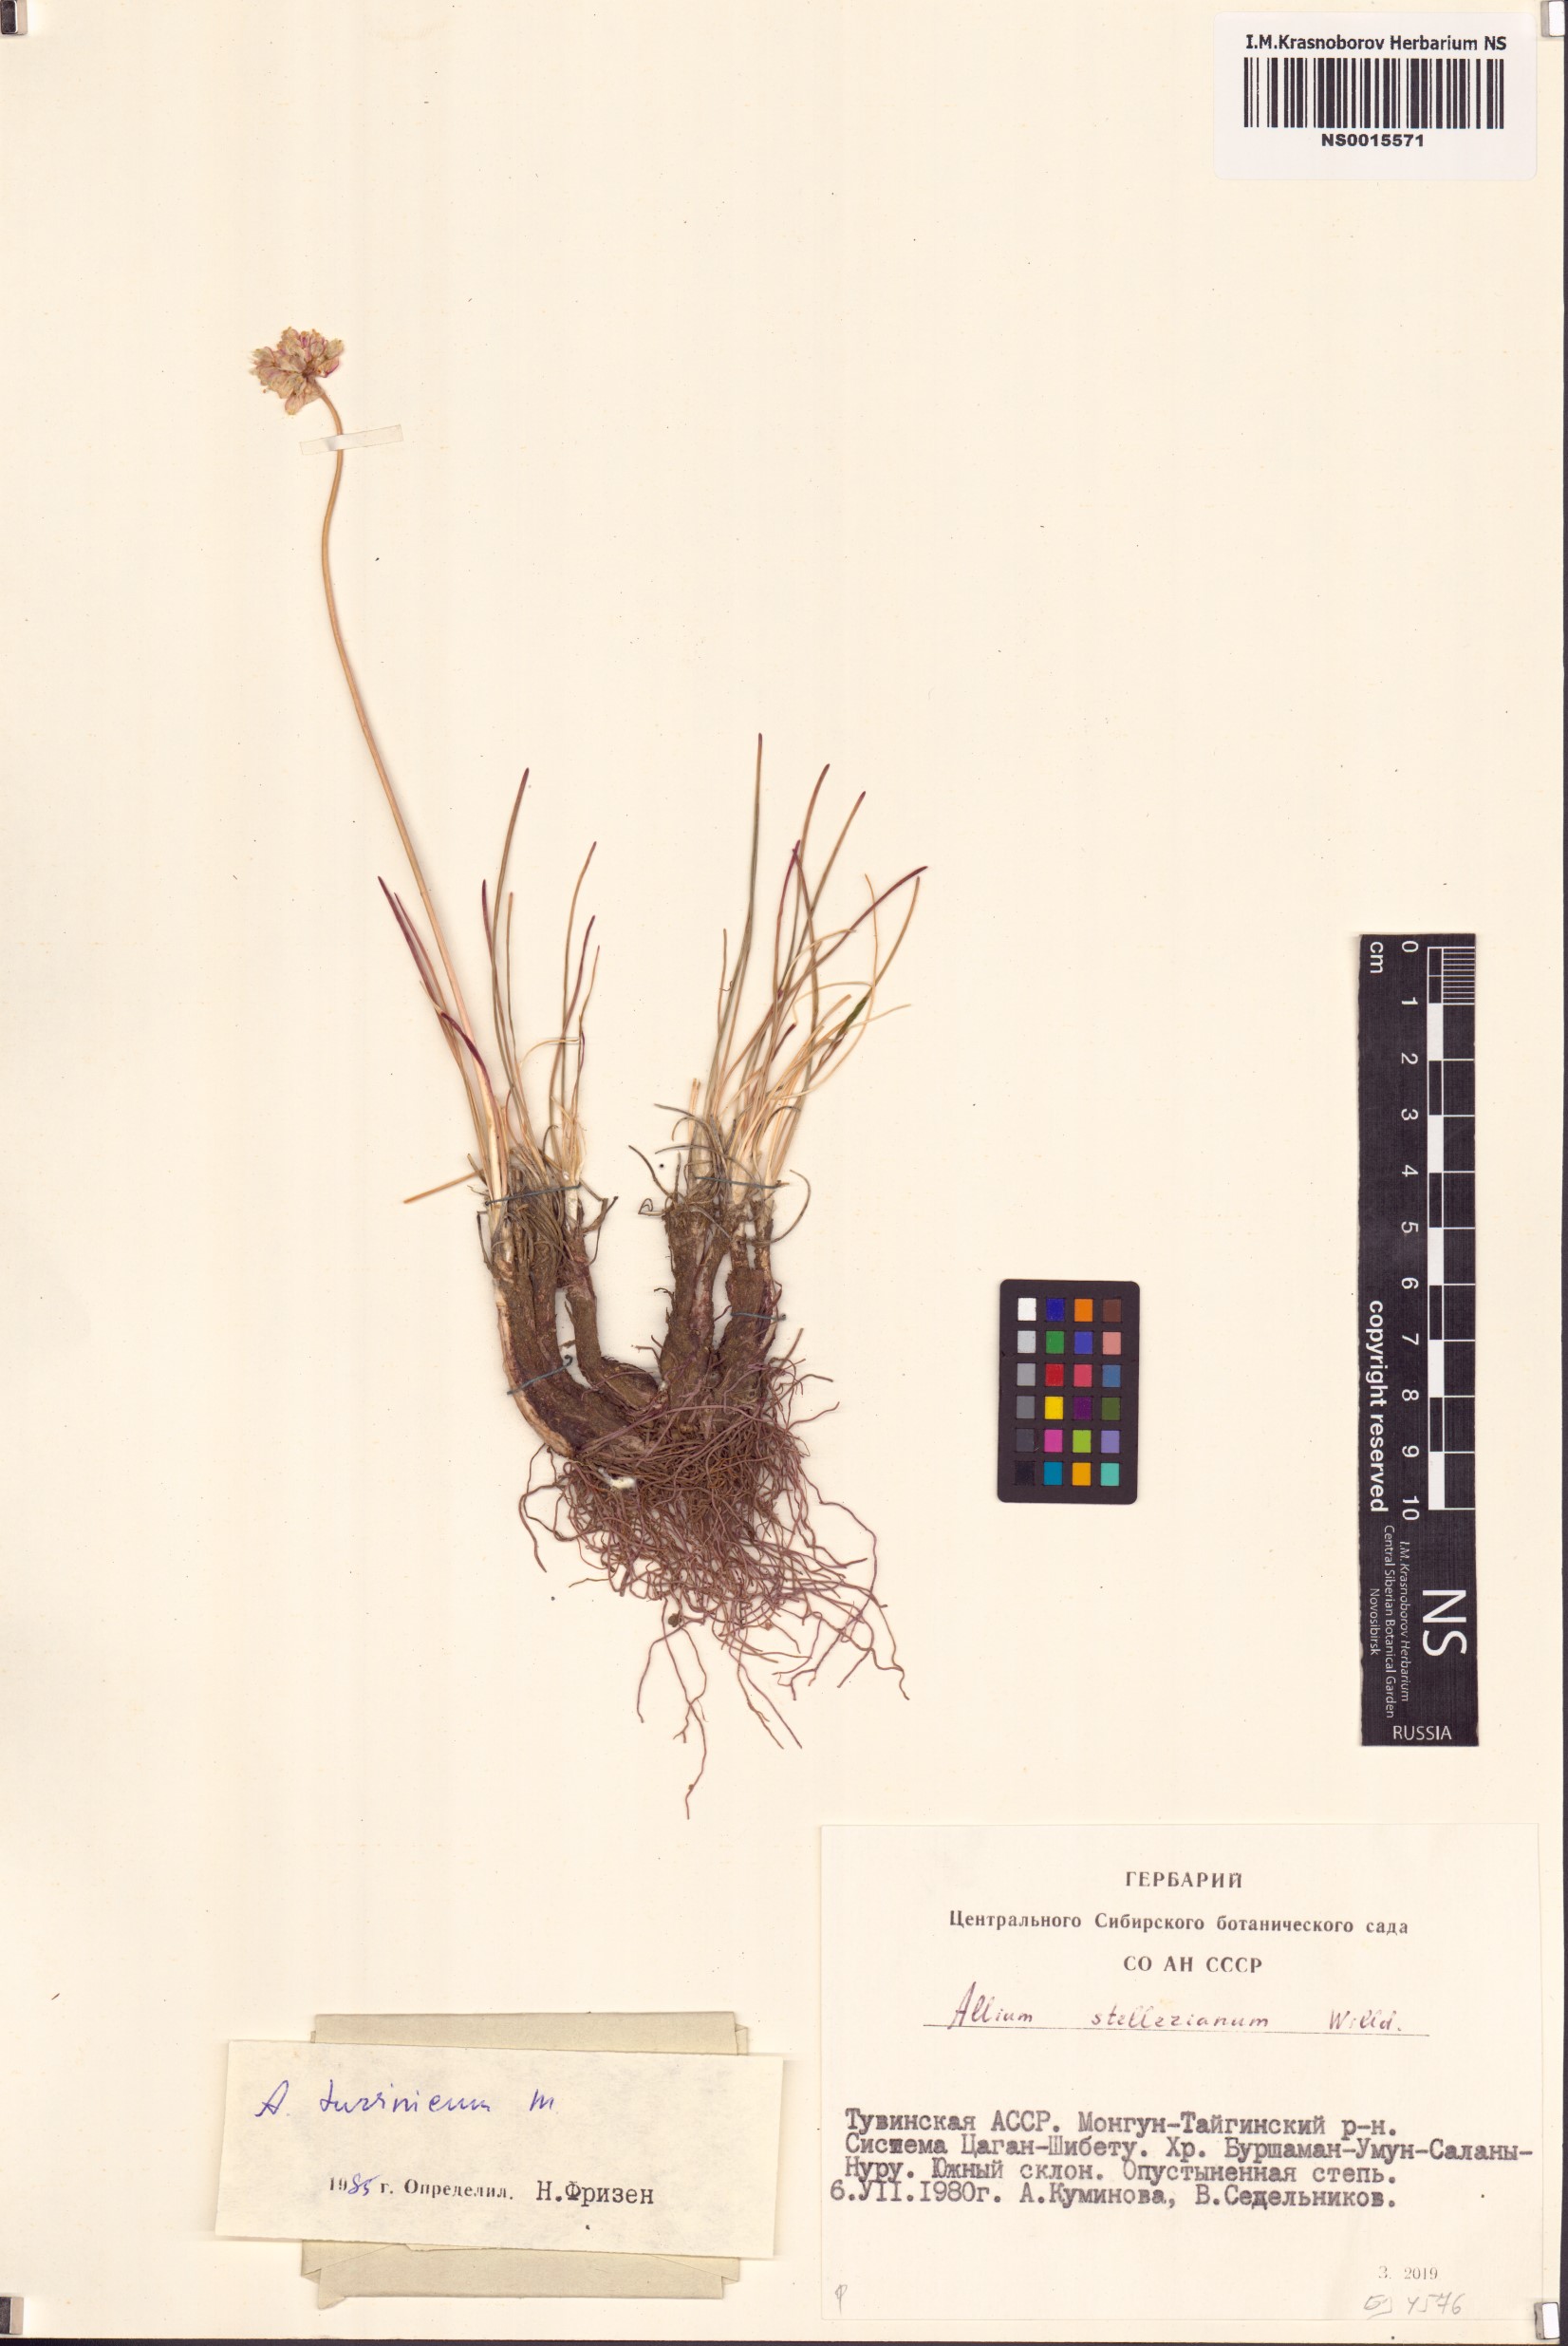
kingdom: Plantae
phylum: Tracheophyta
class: Liliopsida
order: Asparagales
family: Amaryllidaceae
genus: Allium
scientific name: Allium tuvinicum
